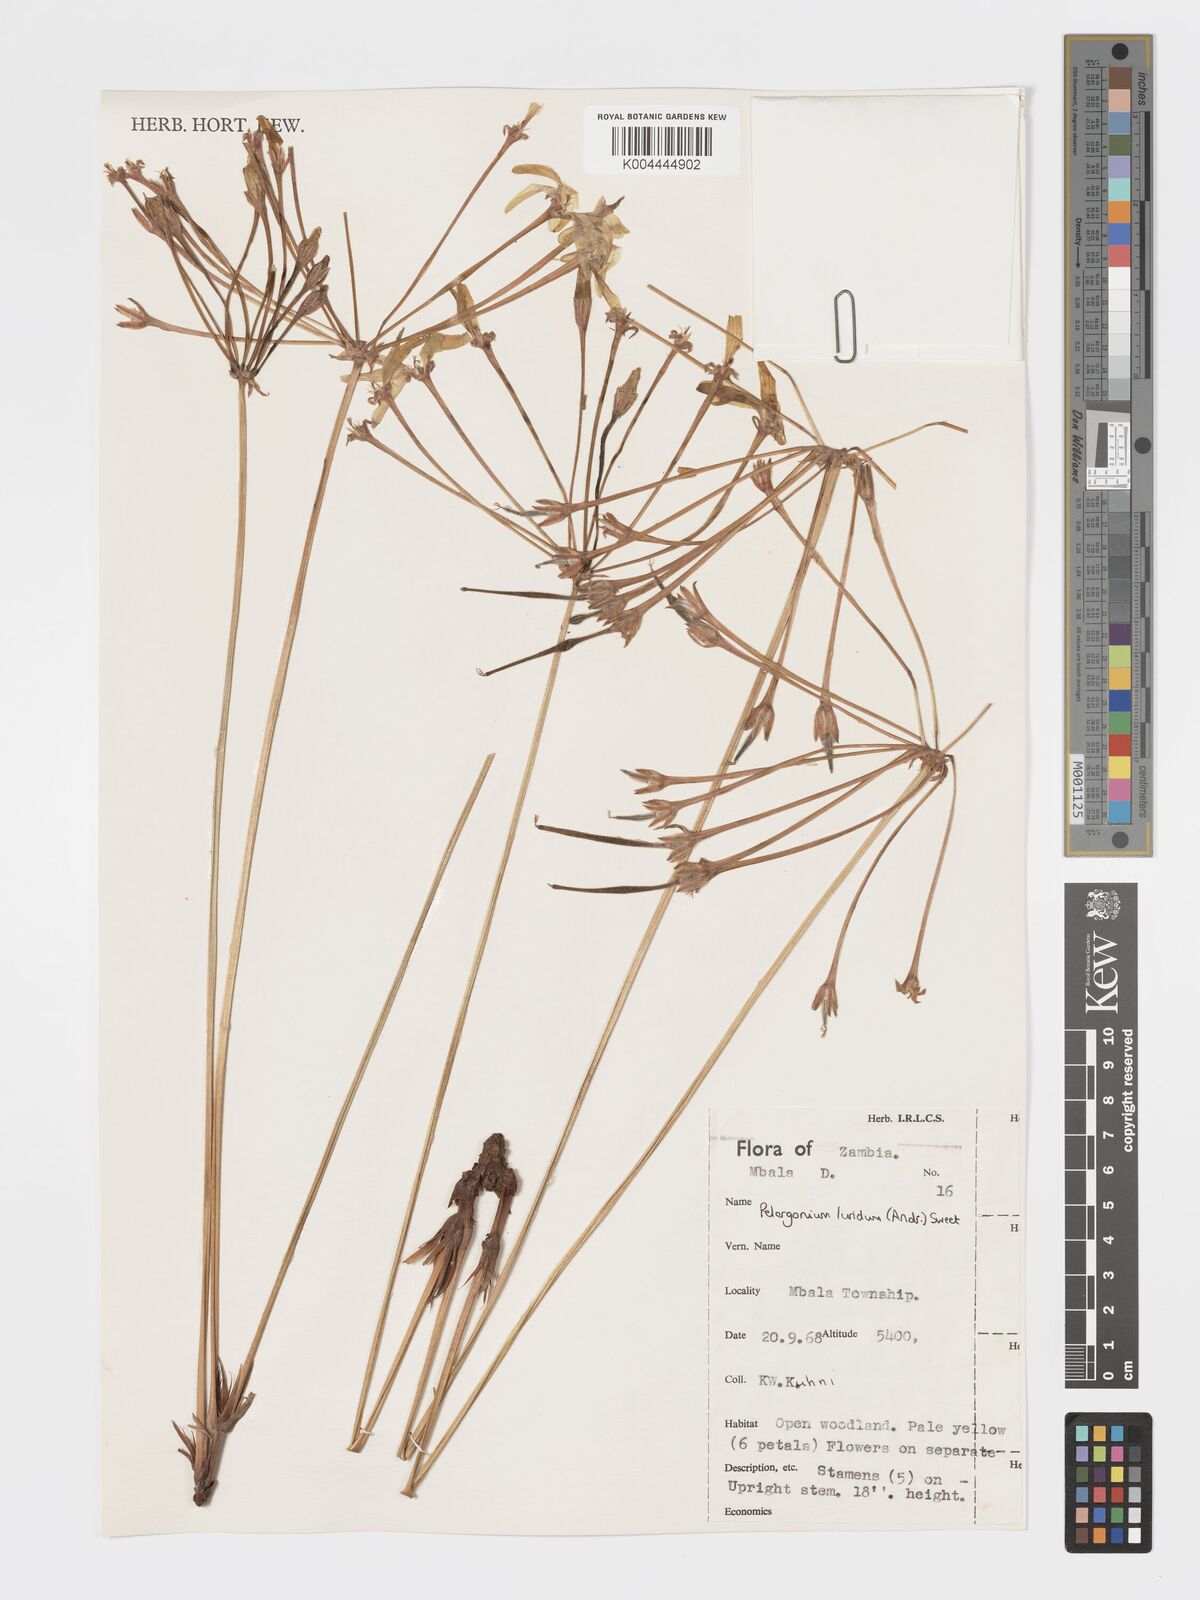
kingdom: Plantae
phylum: Tracheophyta
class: Magnoliopsida
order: Geraniales
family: Geraniaceae
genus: Pelargonium
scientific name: Pelargonium luridum
